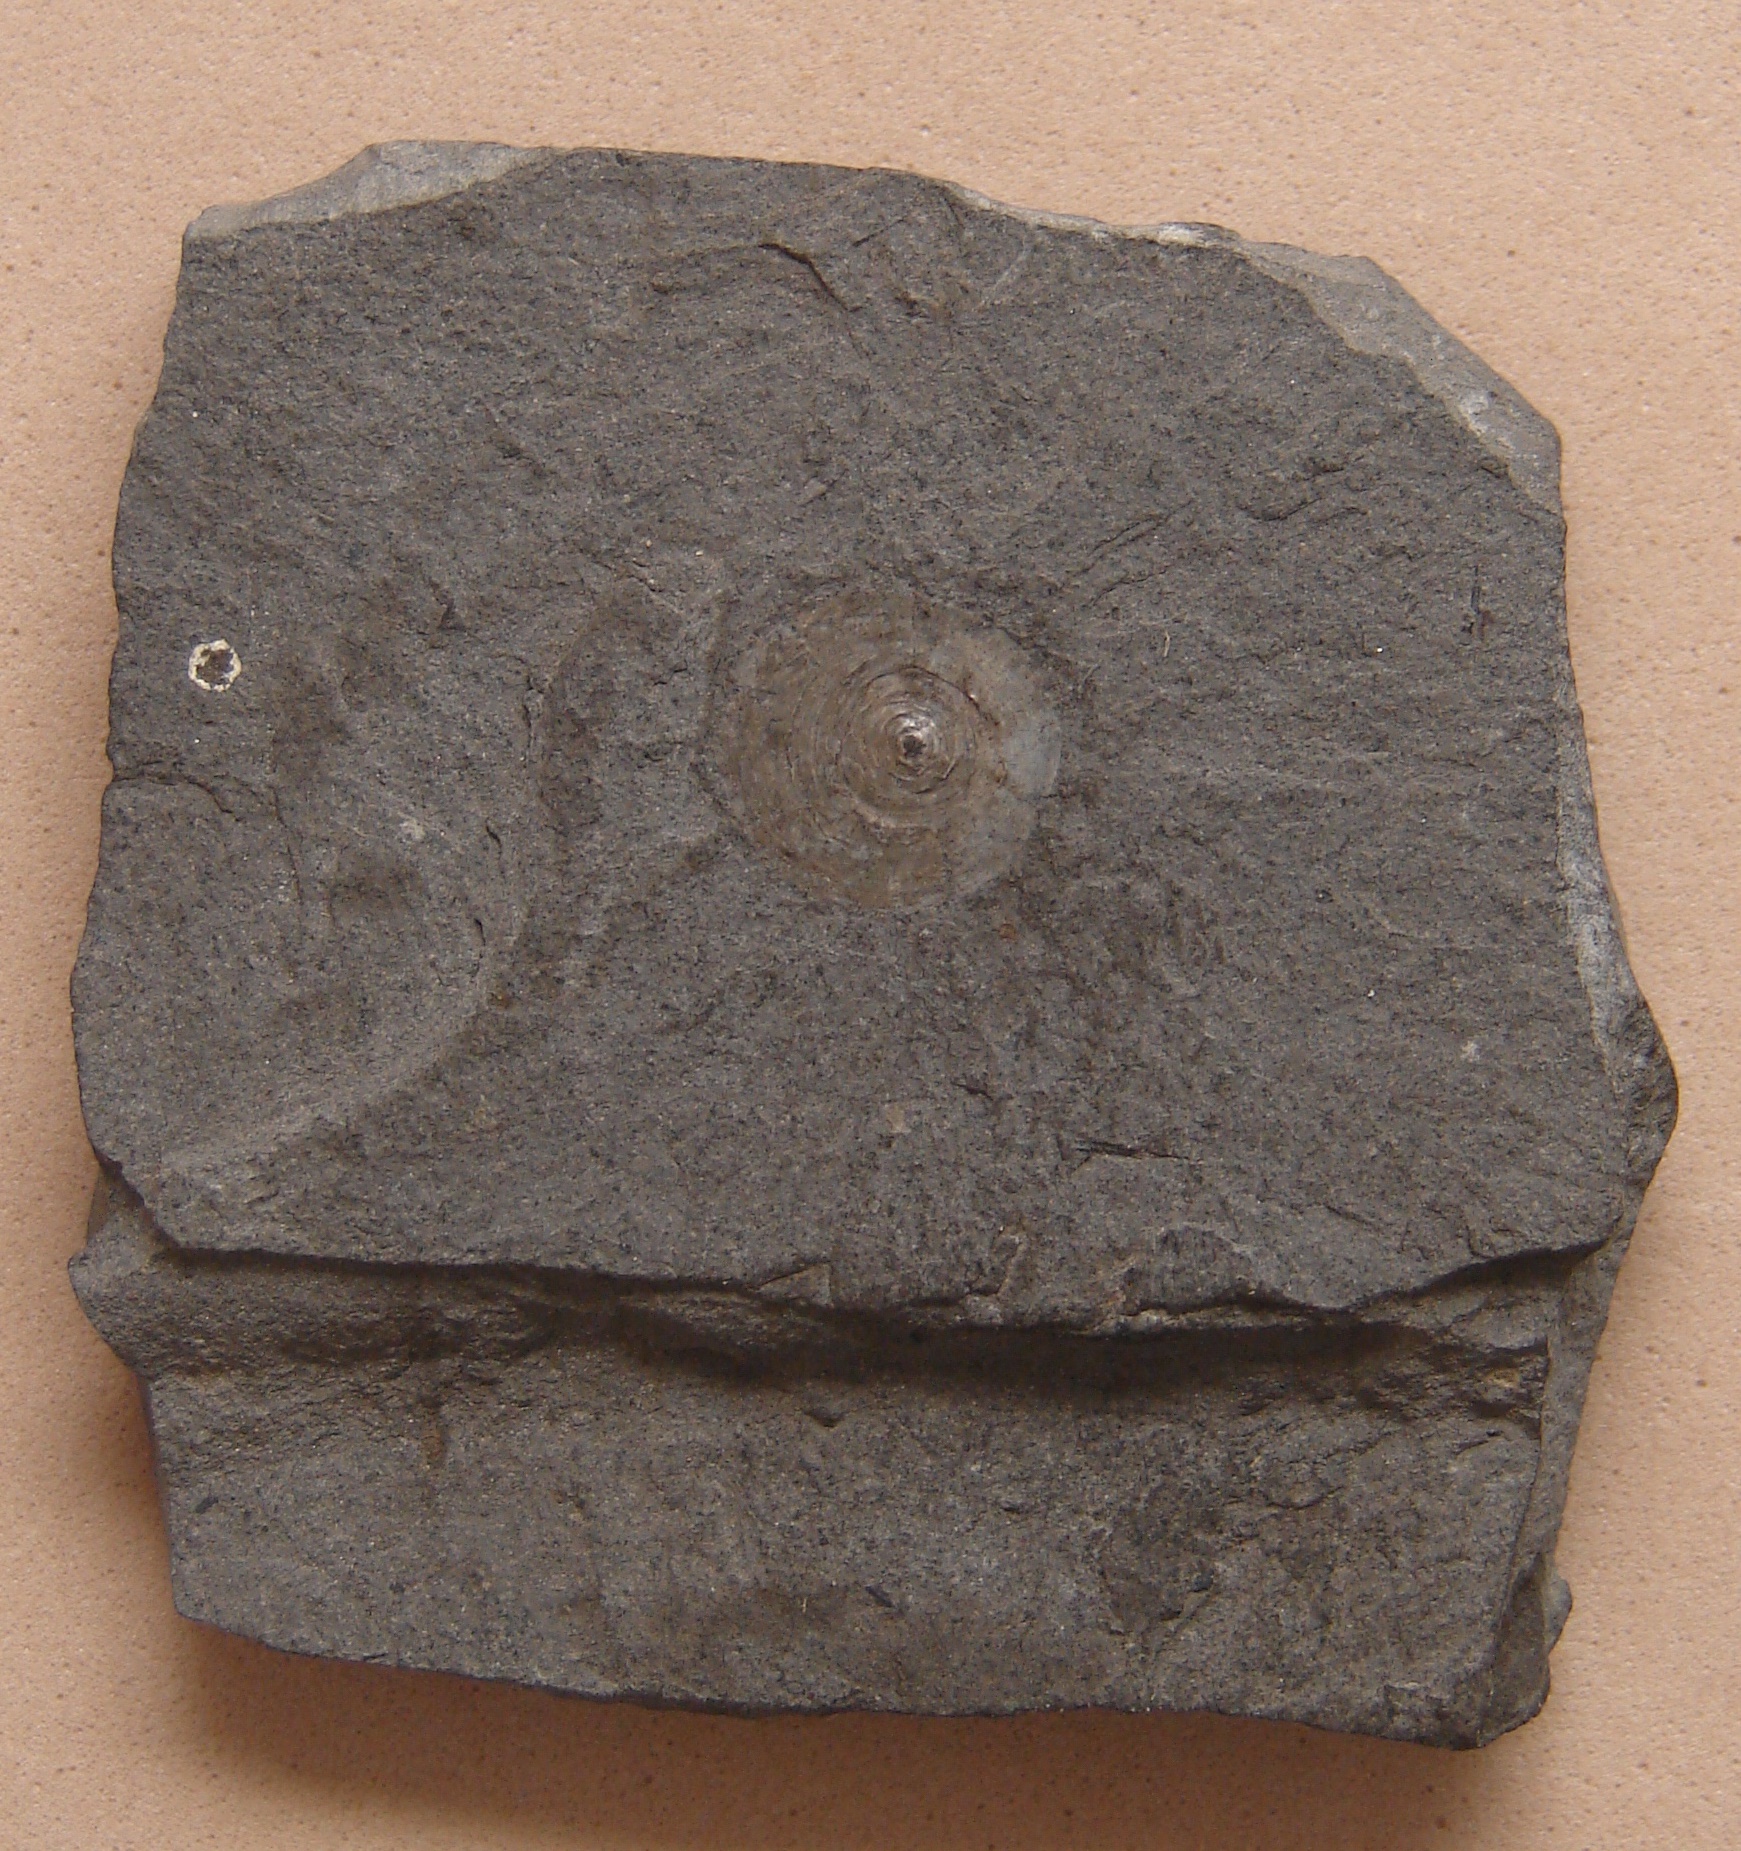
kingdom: Animalia
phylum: Brachiopoda
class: Lingulata
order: Lingulida
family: Discinidae
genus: Orbiculoidea
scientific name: Orbiculoidea
